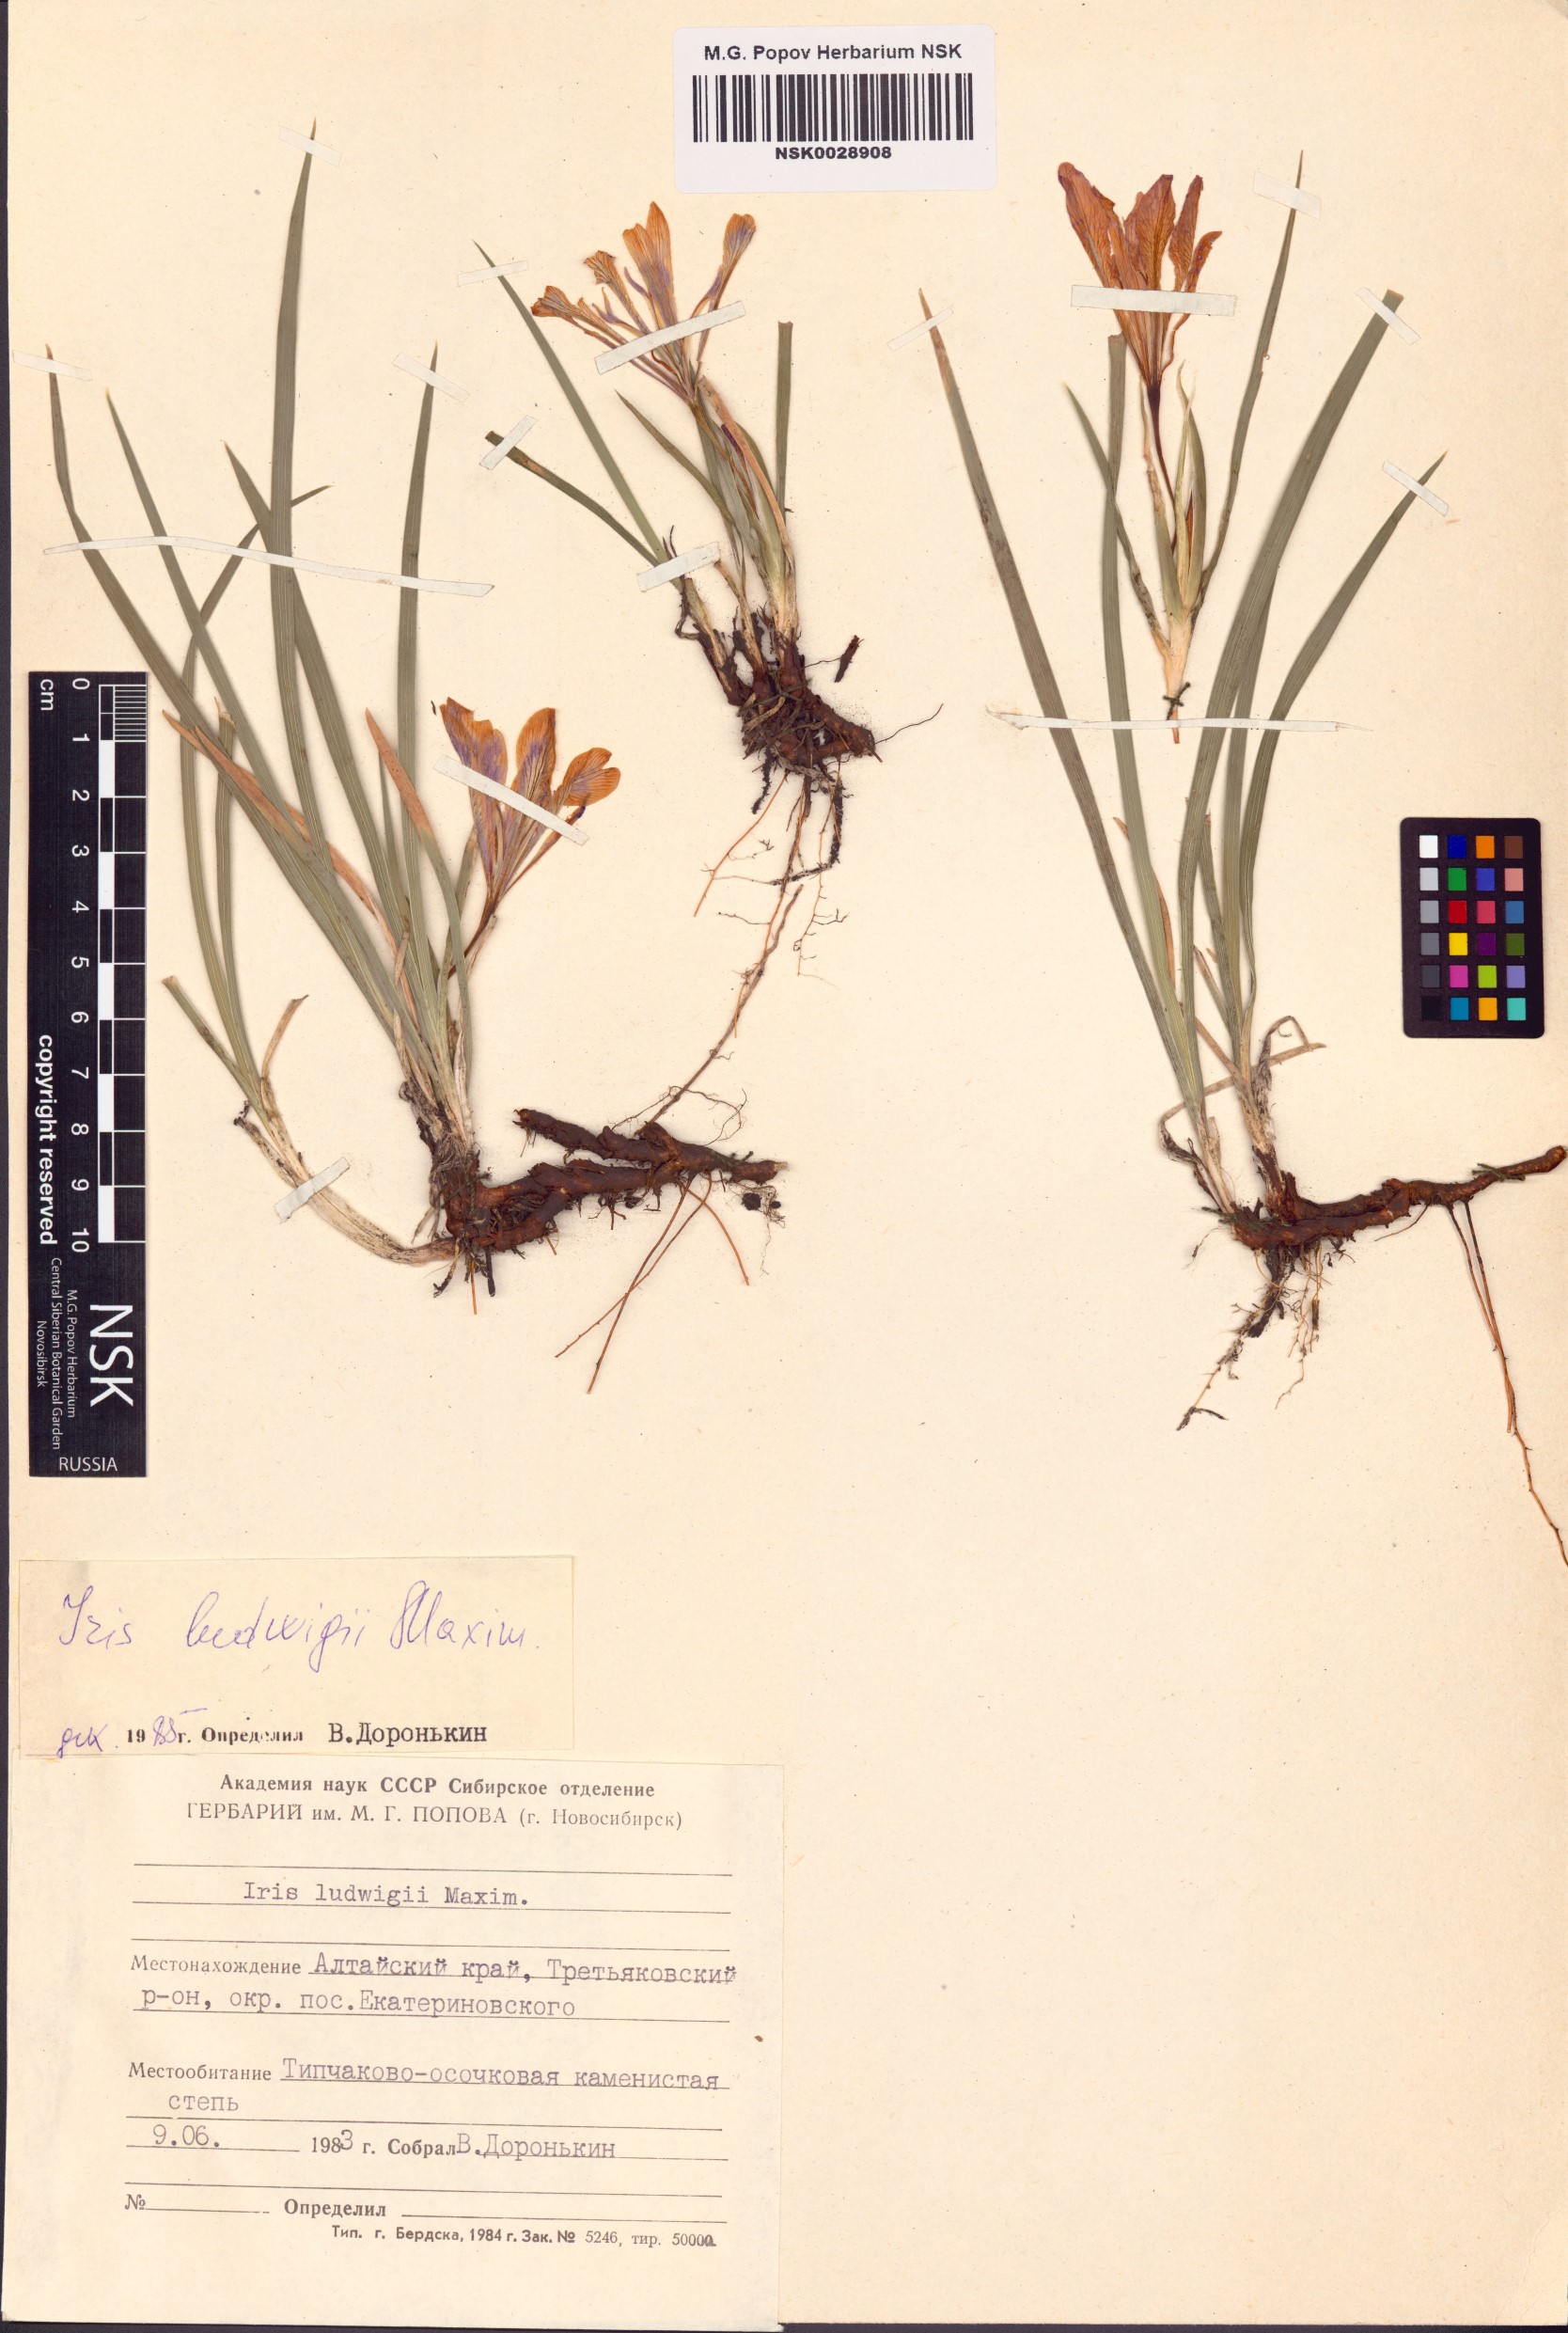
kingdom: Plantae
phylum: Tracheophyta
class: Liliopsida
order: Asparagales
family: Iridaceae
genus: Iris
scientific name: Iris ludwigii
